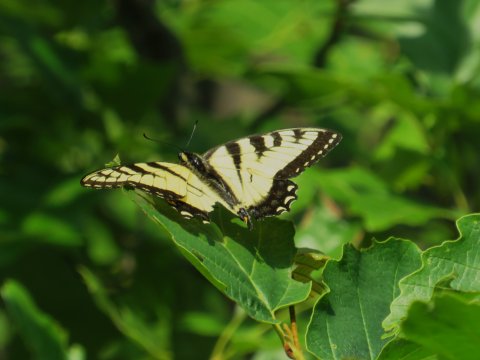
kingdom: Animalia
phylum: Arthropoda
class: Insecta
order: Lepidoptera
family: Papilionidae
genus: Pterourus
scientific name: Pterourus glaucus
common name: Eastern Tiger Swallowtail
